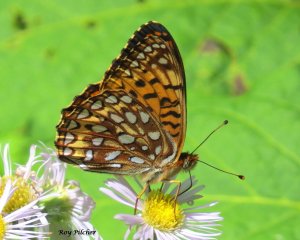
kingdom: Animalia
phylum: Arthropoda
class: Insecta
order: Lepidoptera
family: Nymphalidae
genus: Speyeria
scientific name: Speyeria atlantis
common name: Atlantis Fritillary
